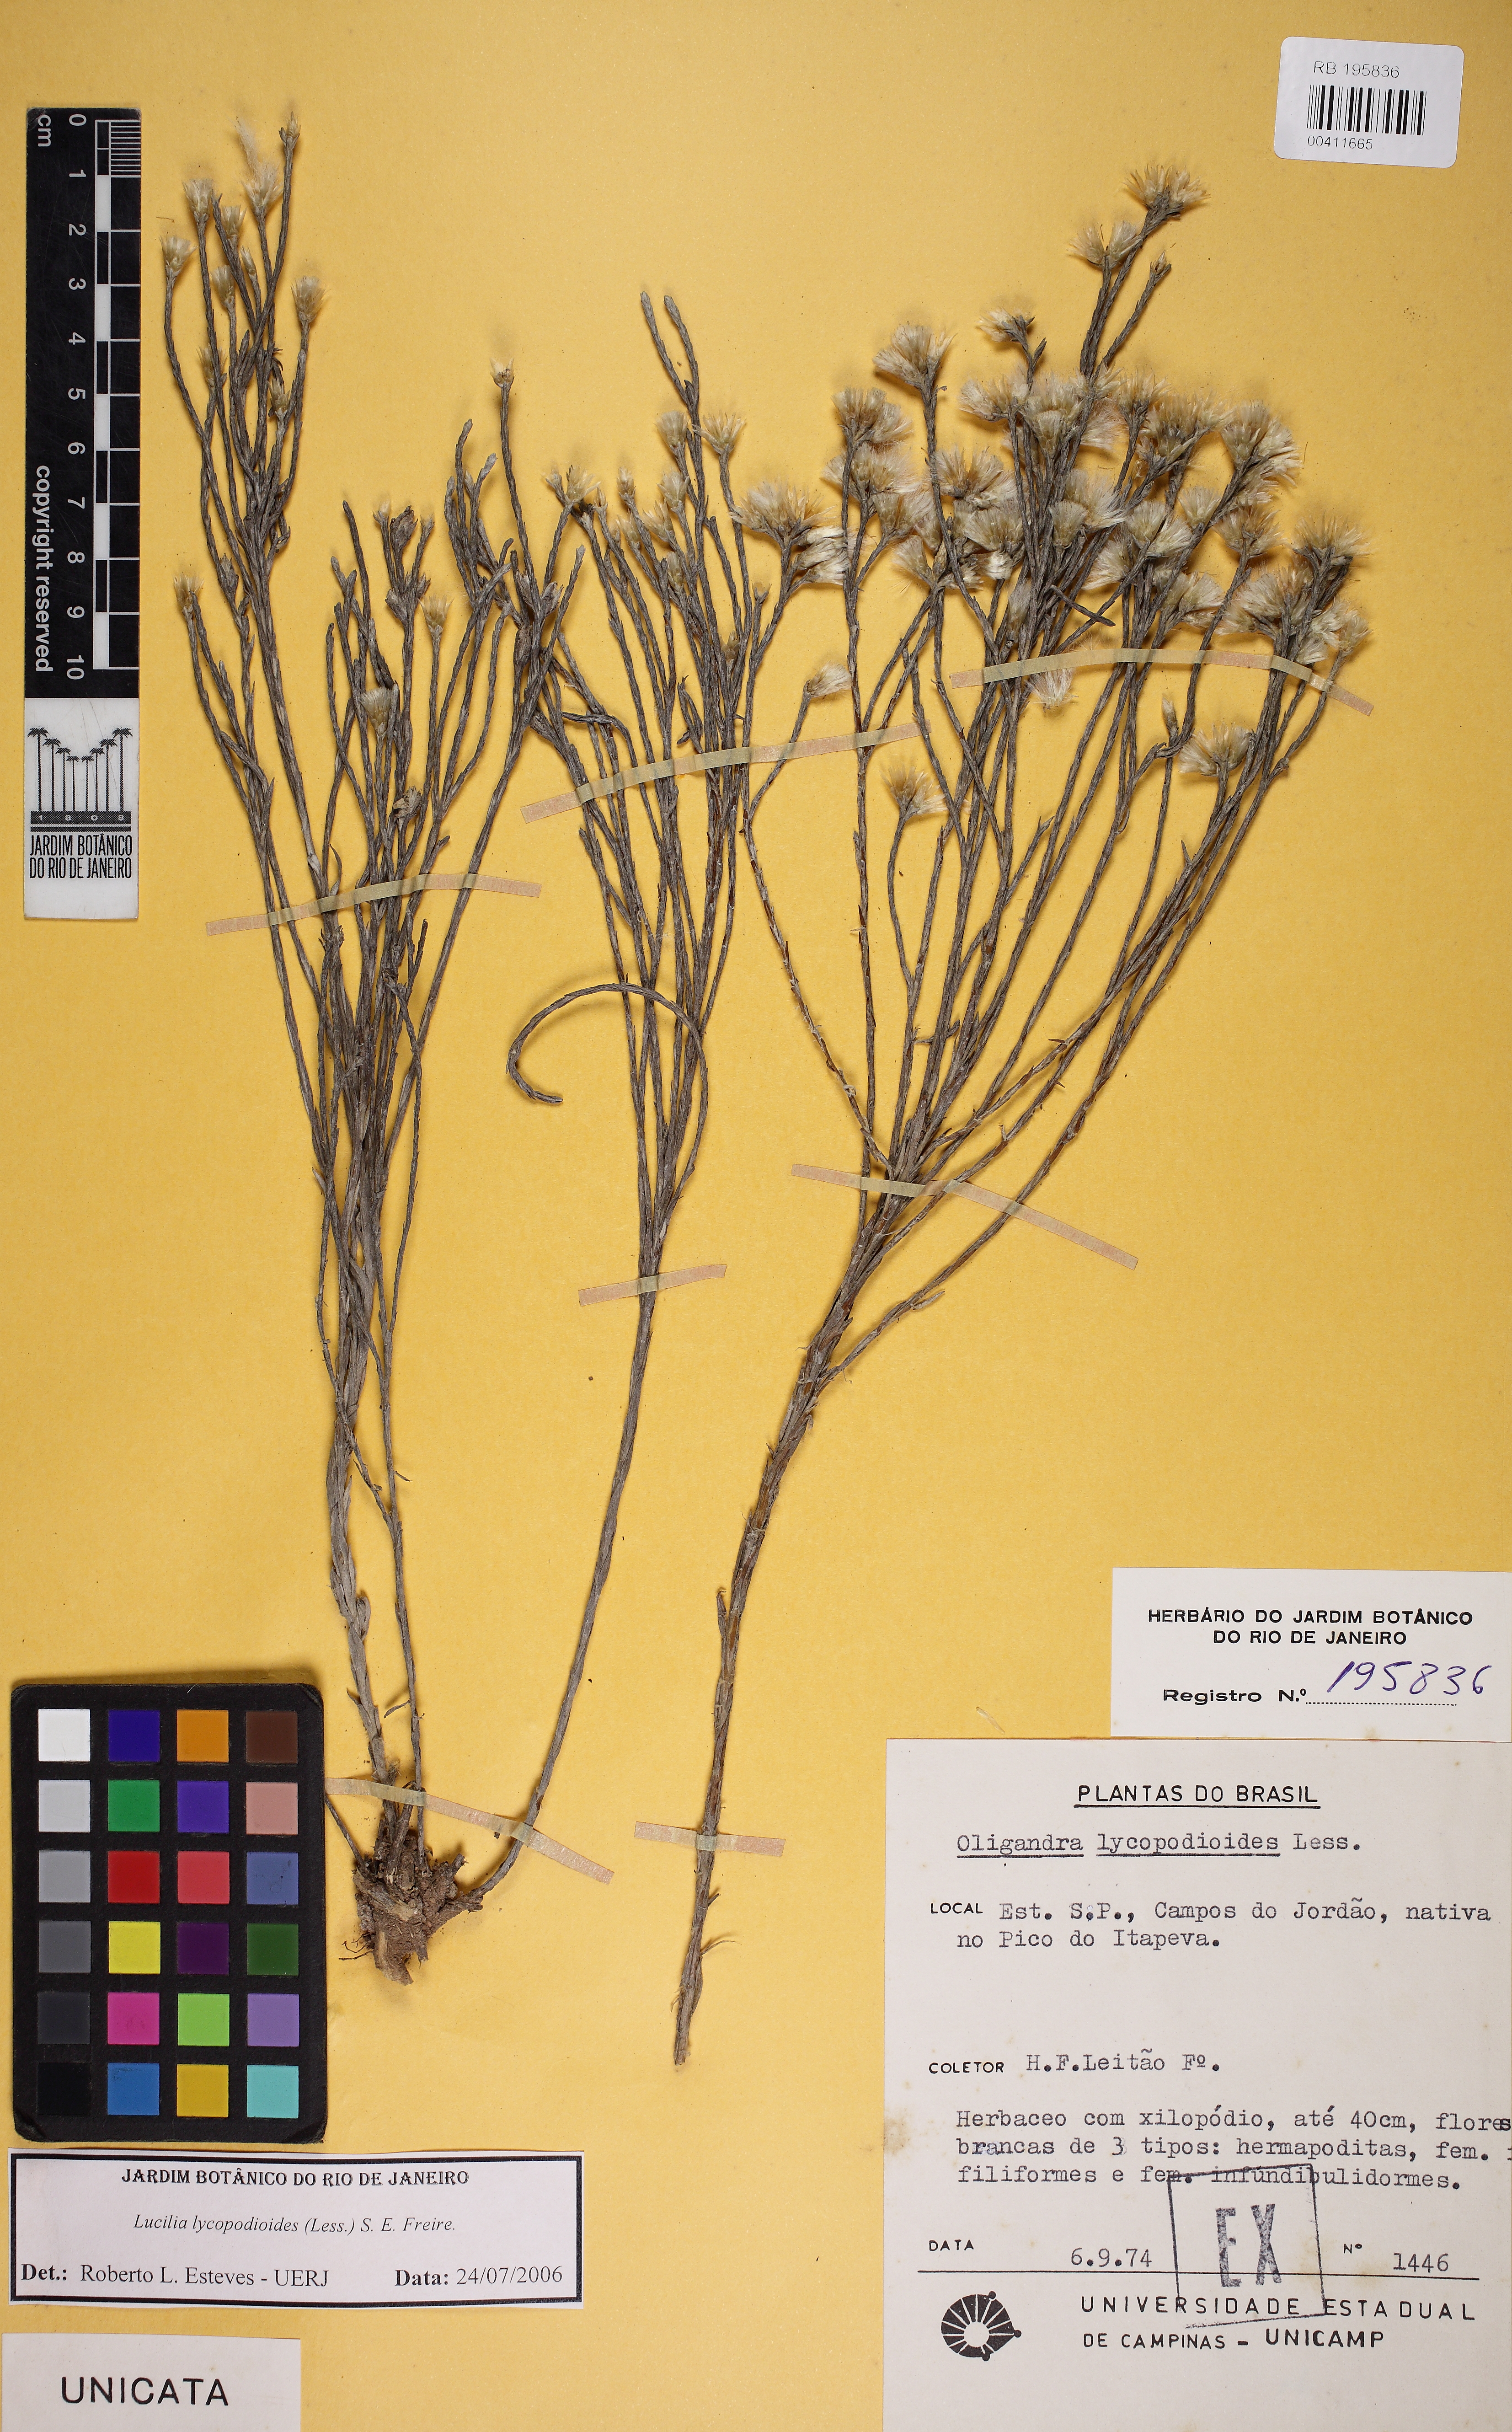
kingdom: Plantae
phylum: Tracheophyta
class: Magnoliopsida
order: Asterales
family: Asteraceae
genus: Lucilia
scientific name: Lucilia lycopodioides
